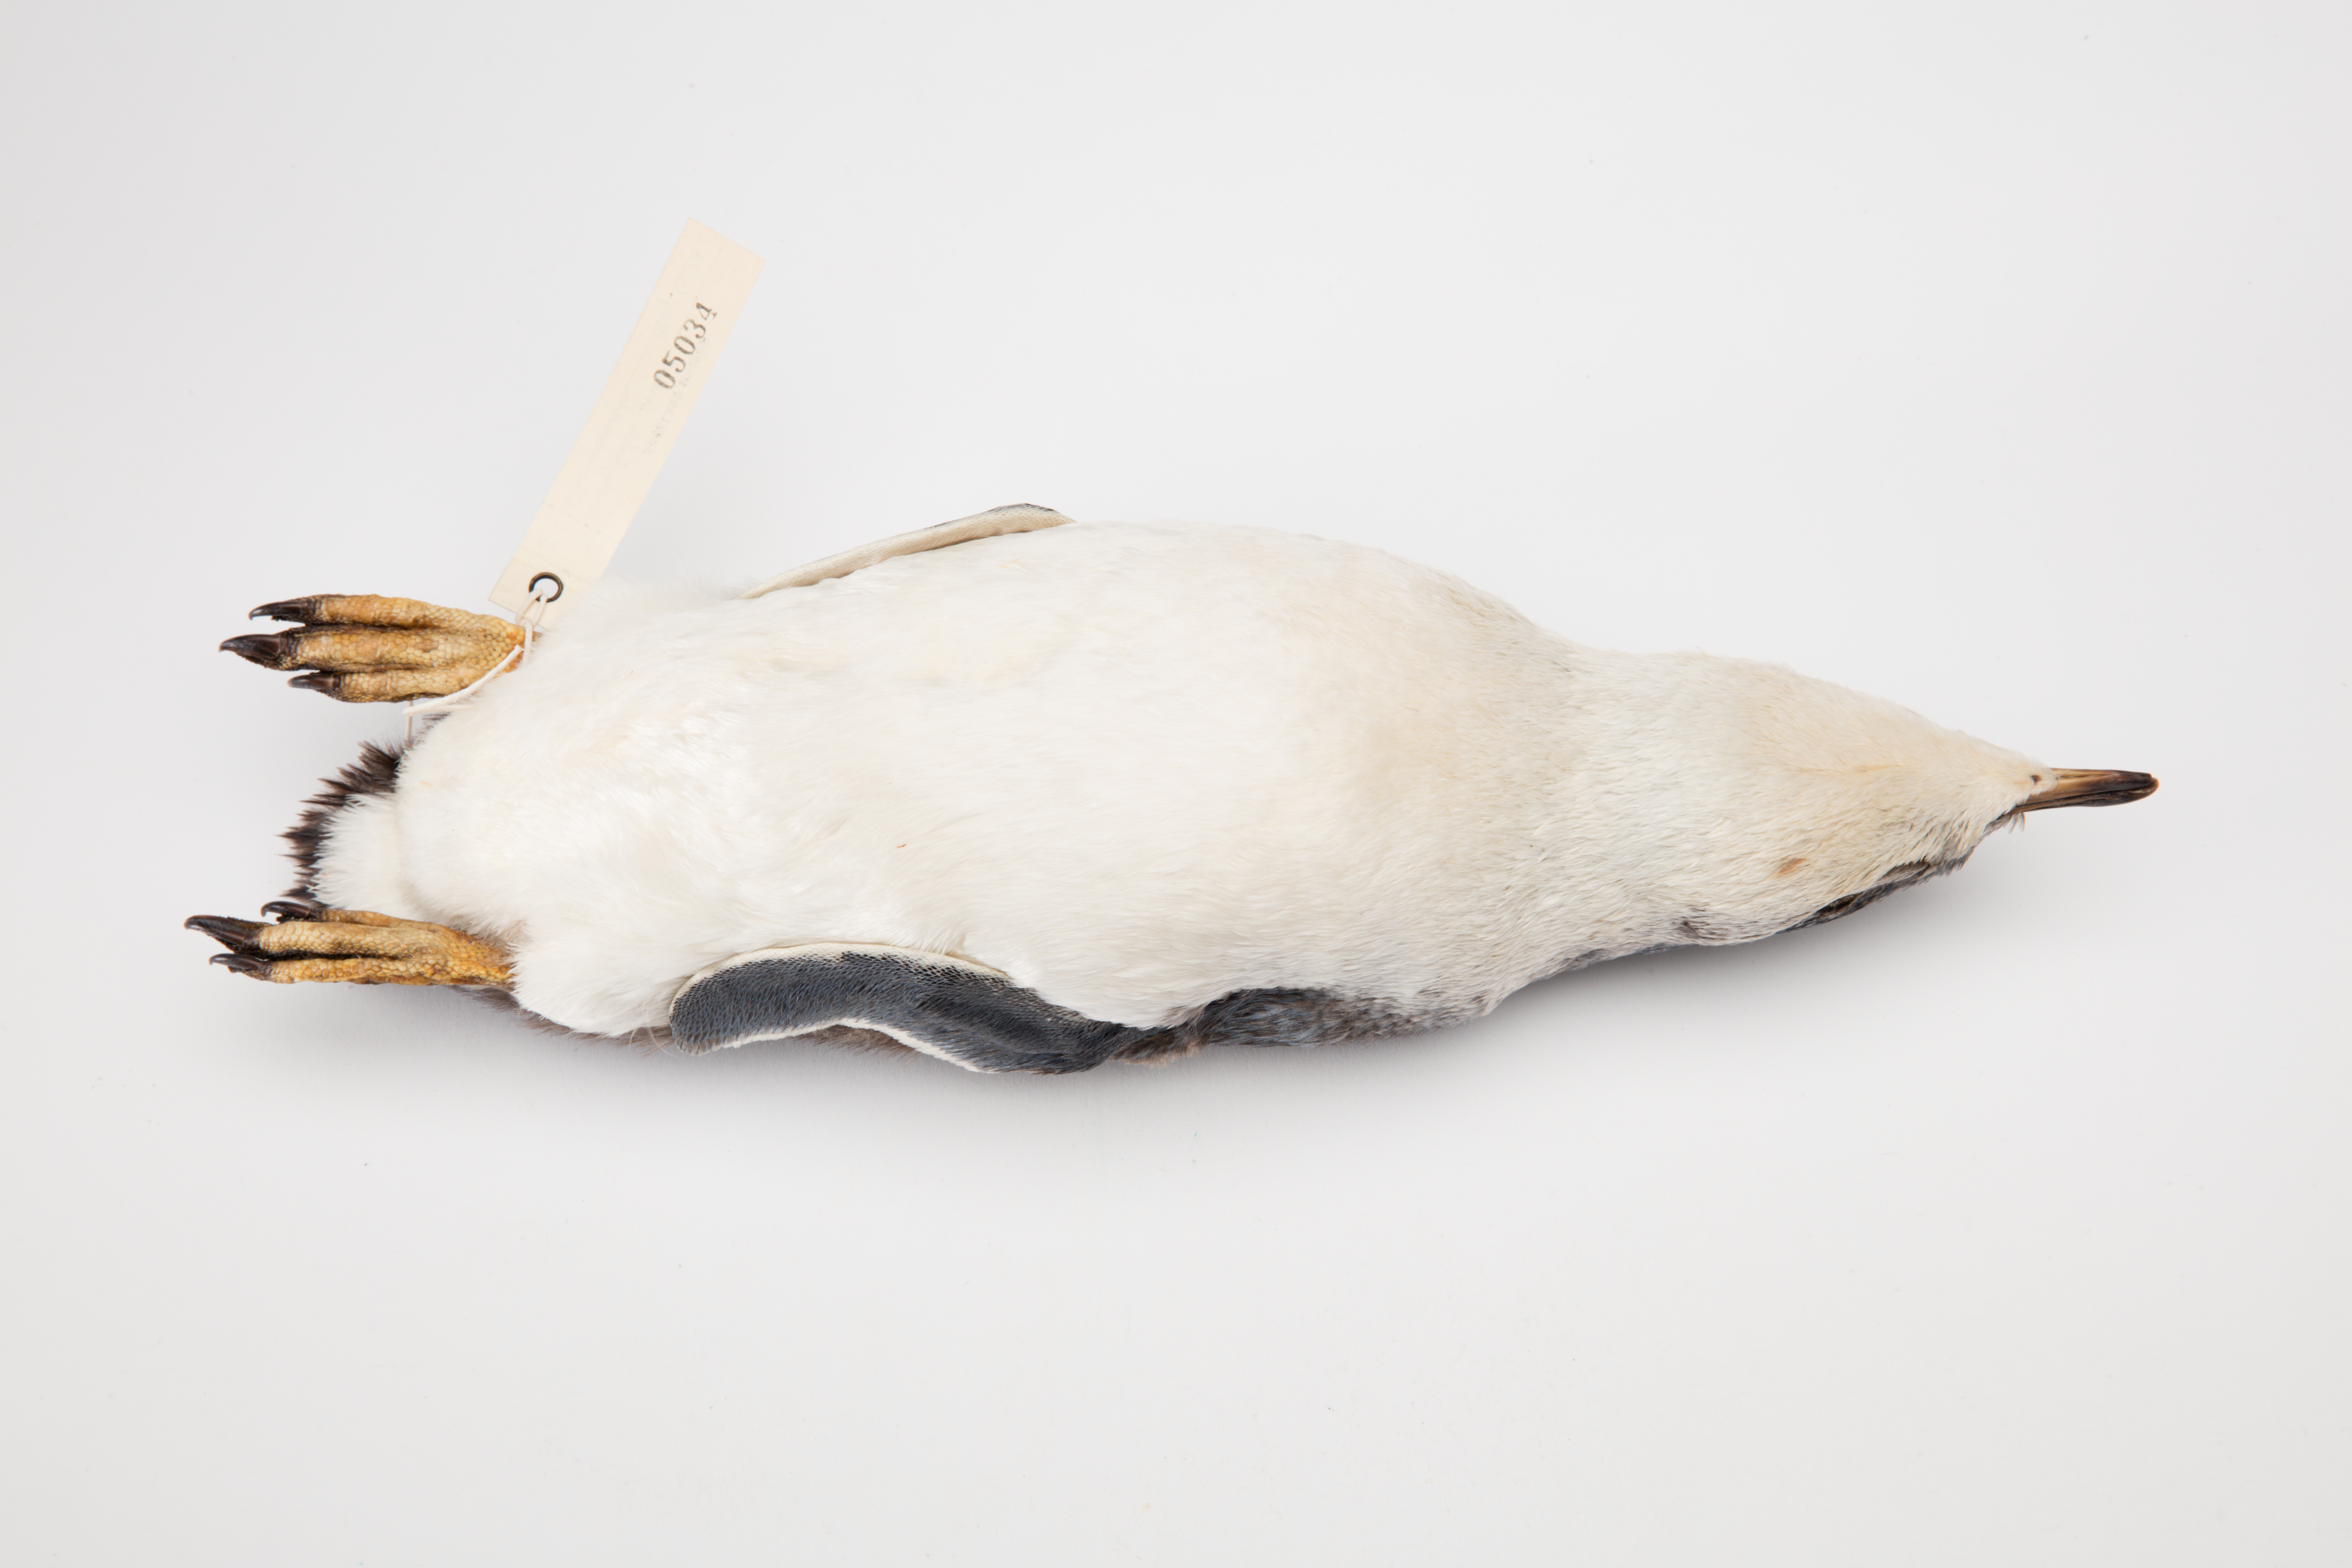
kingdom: Animalia
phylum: Chordata
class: Aves
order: Sphenisciformes
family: Spheniscidae
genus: Eudyptula
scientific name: Eudyptula minor
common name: Little penguin
